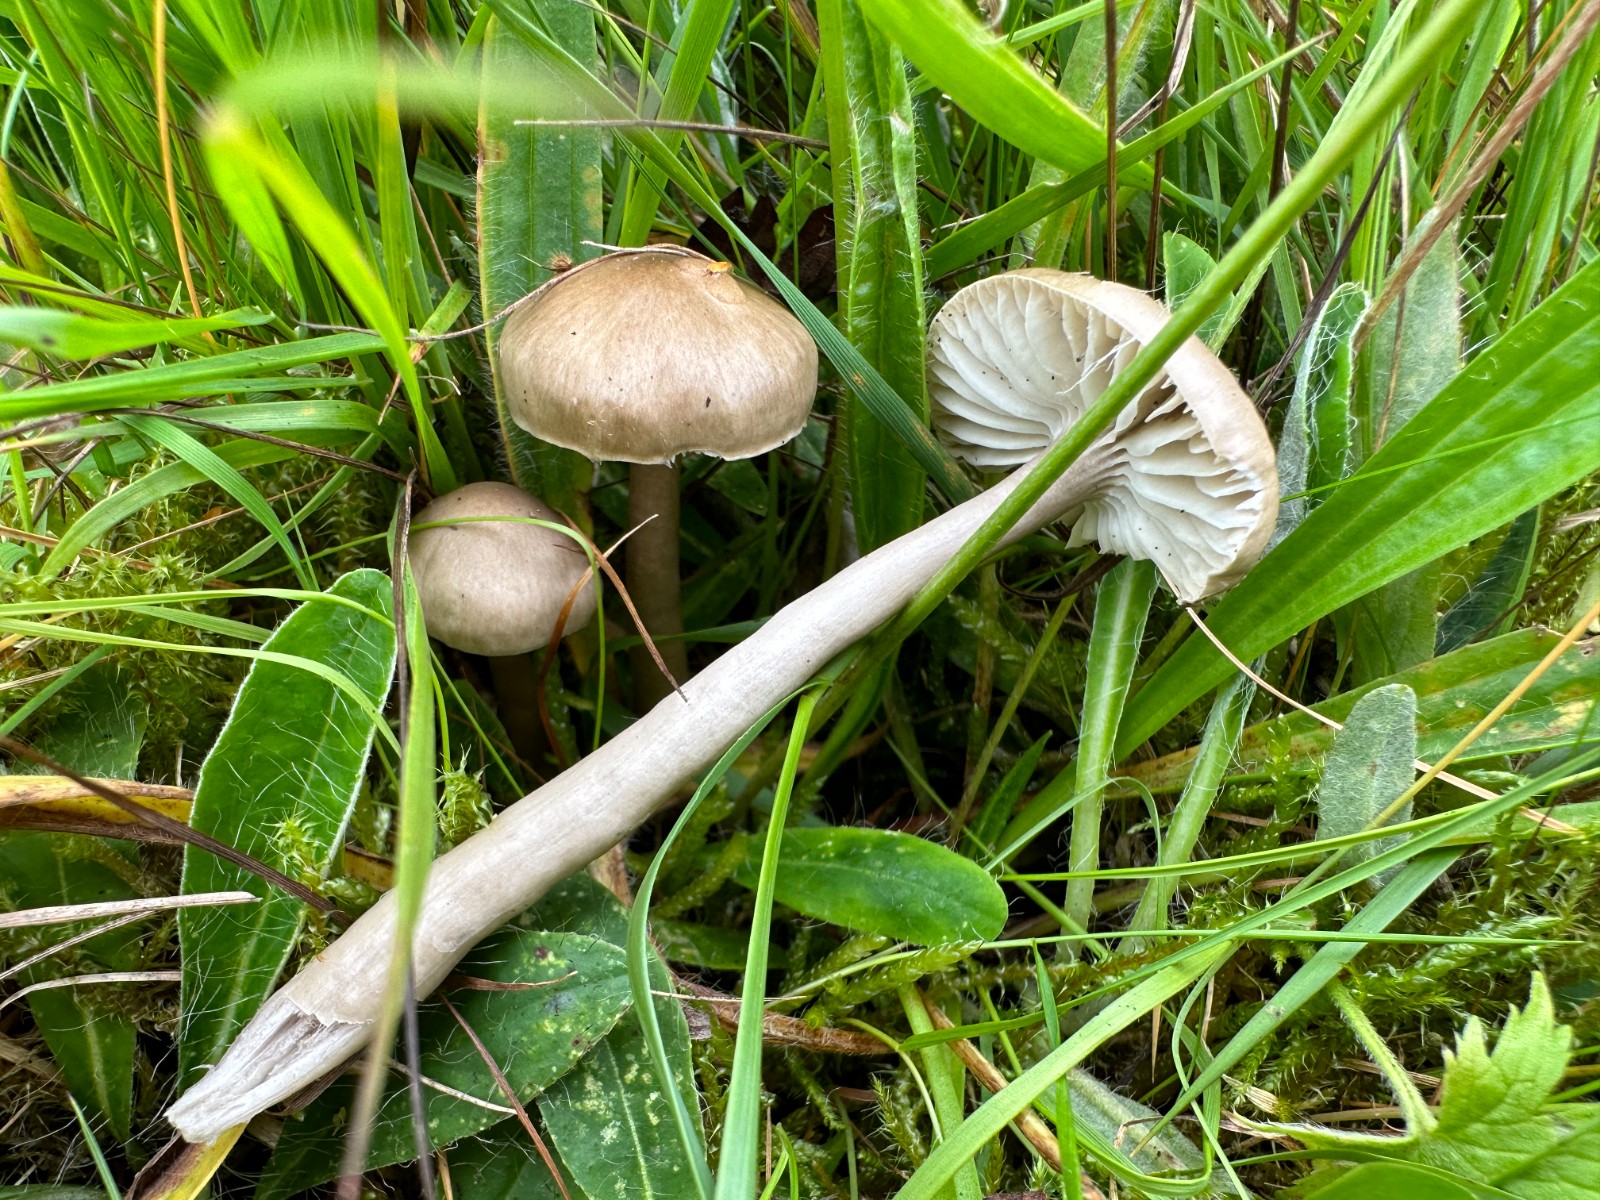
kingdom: Fungi
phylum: Basidiomycota
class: Agaricomycetes
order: Agaricales
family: Hygrophoraceae
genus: Gliophorus
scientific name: Gliophorus irrigatus
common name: slimet vokshat
